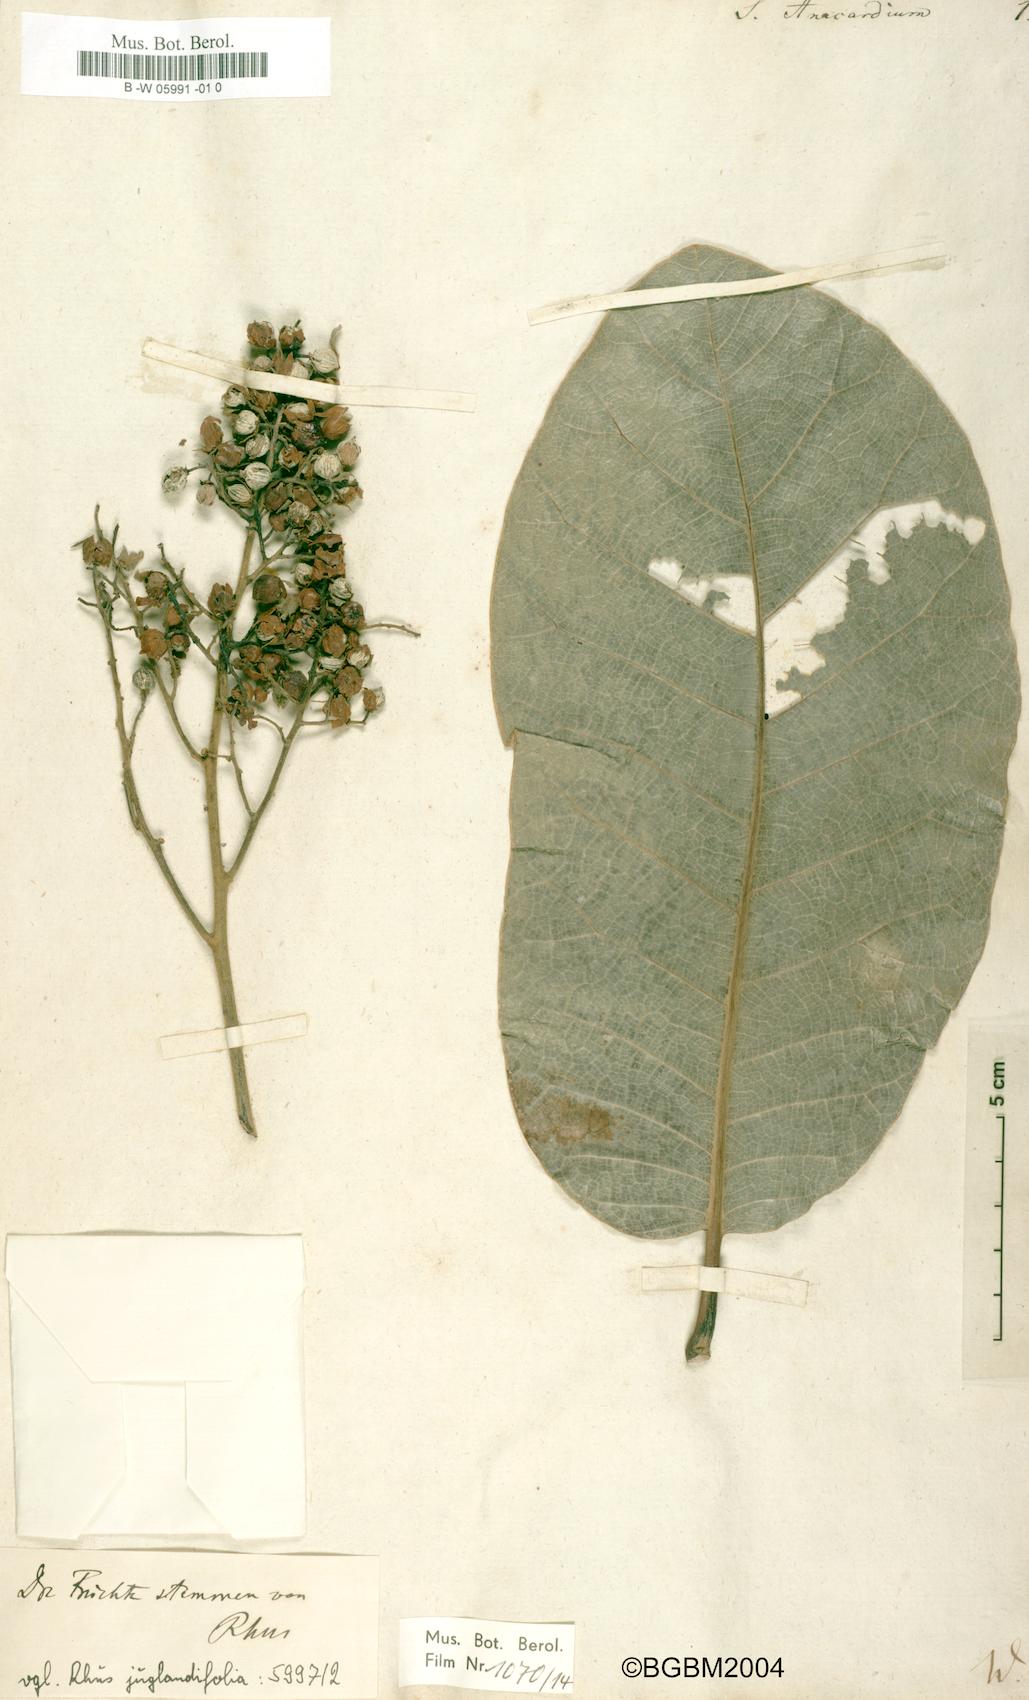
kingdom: Plantae
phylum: Tracheophyta
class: Magnoliopsida
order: Sapindales
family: Anacardiaceae
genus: Semecarpus
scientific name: Semecarpus anacardium
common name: Marking nut-tree
